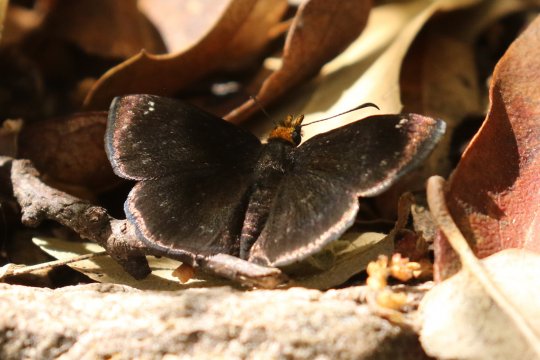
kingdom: Animalia
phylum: Arthropoda
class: Insecta
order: Lepidoptera
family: Hesperiidae
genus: Staphylus
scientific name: Staphylus ceos
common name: Golden-headed Scallopwing
